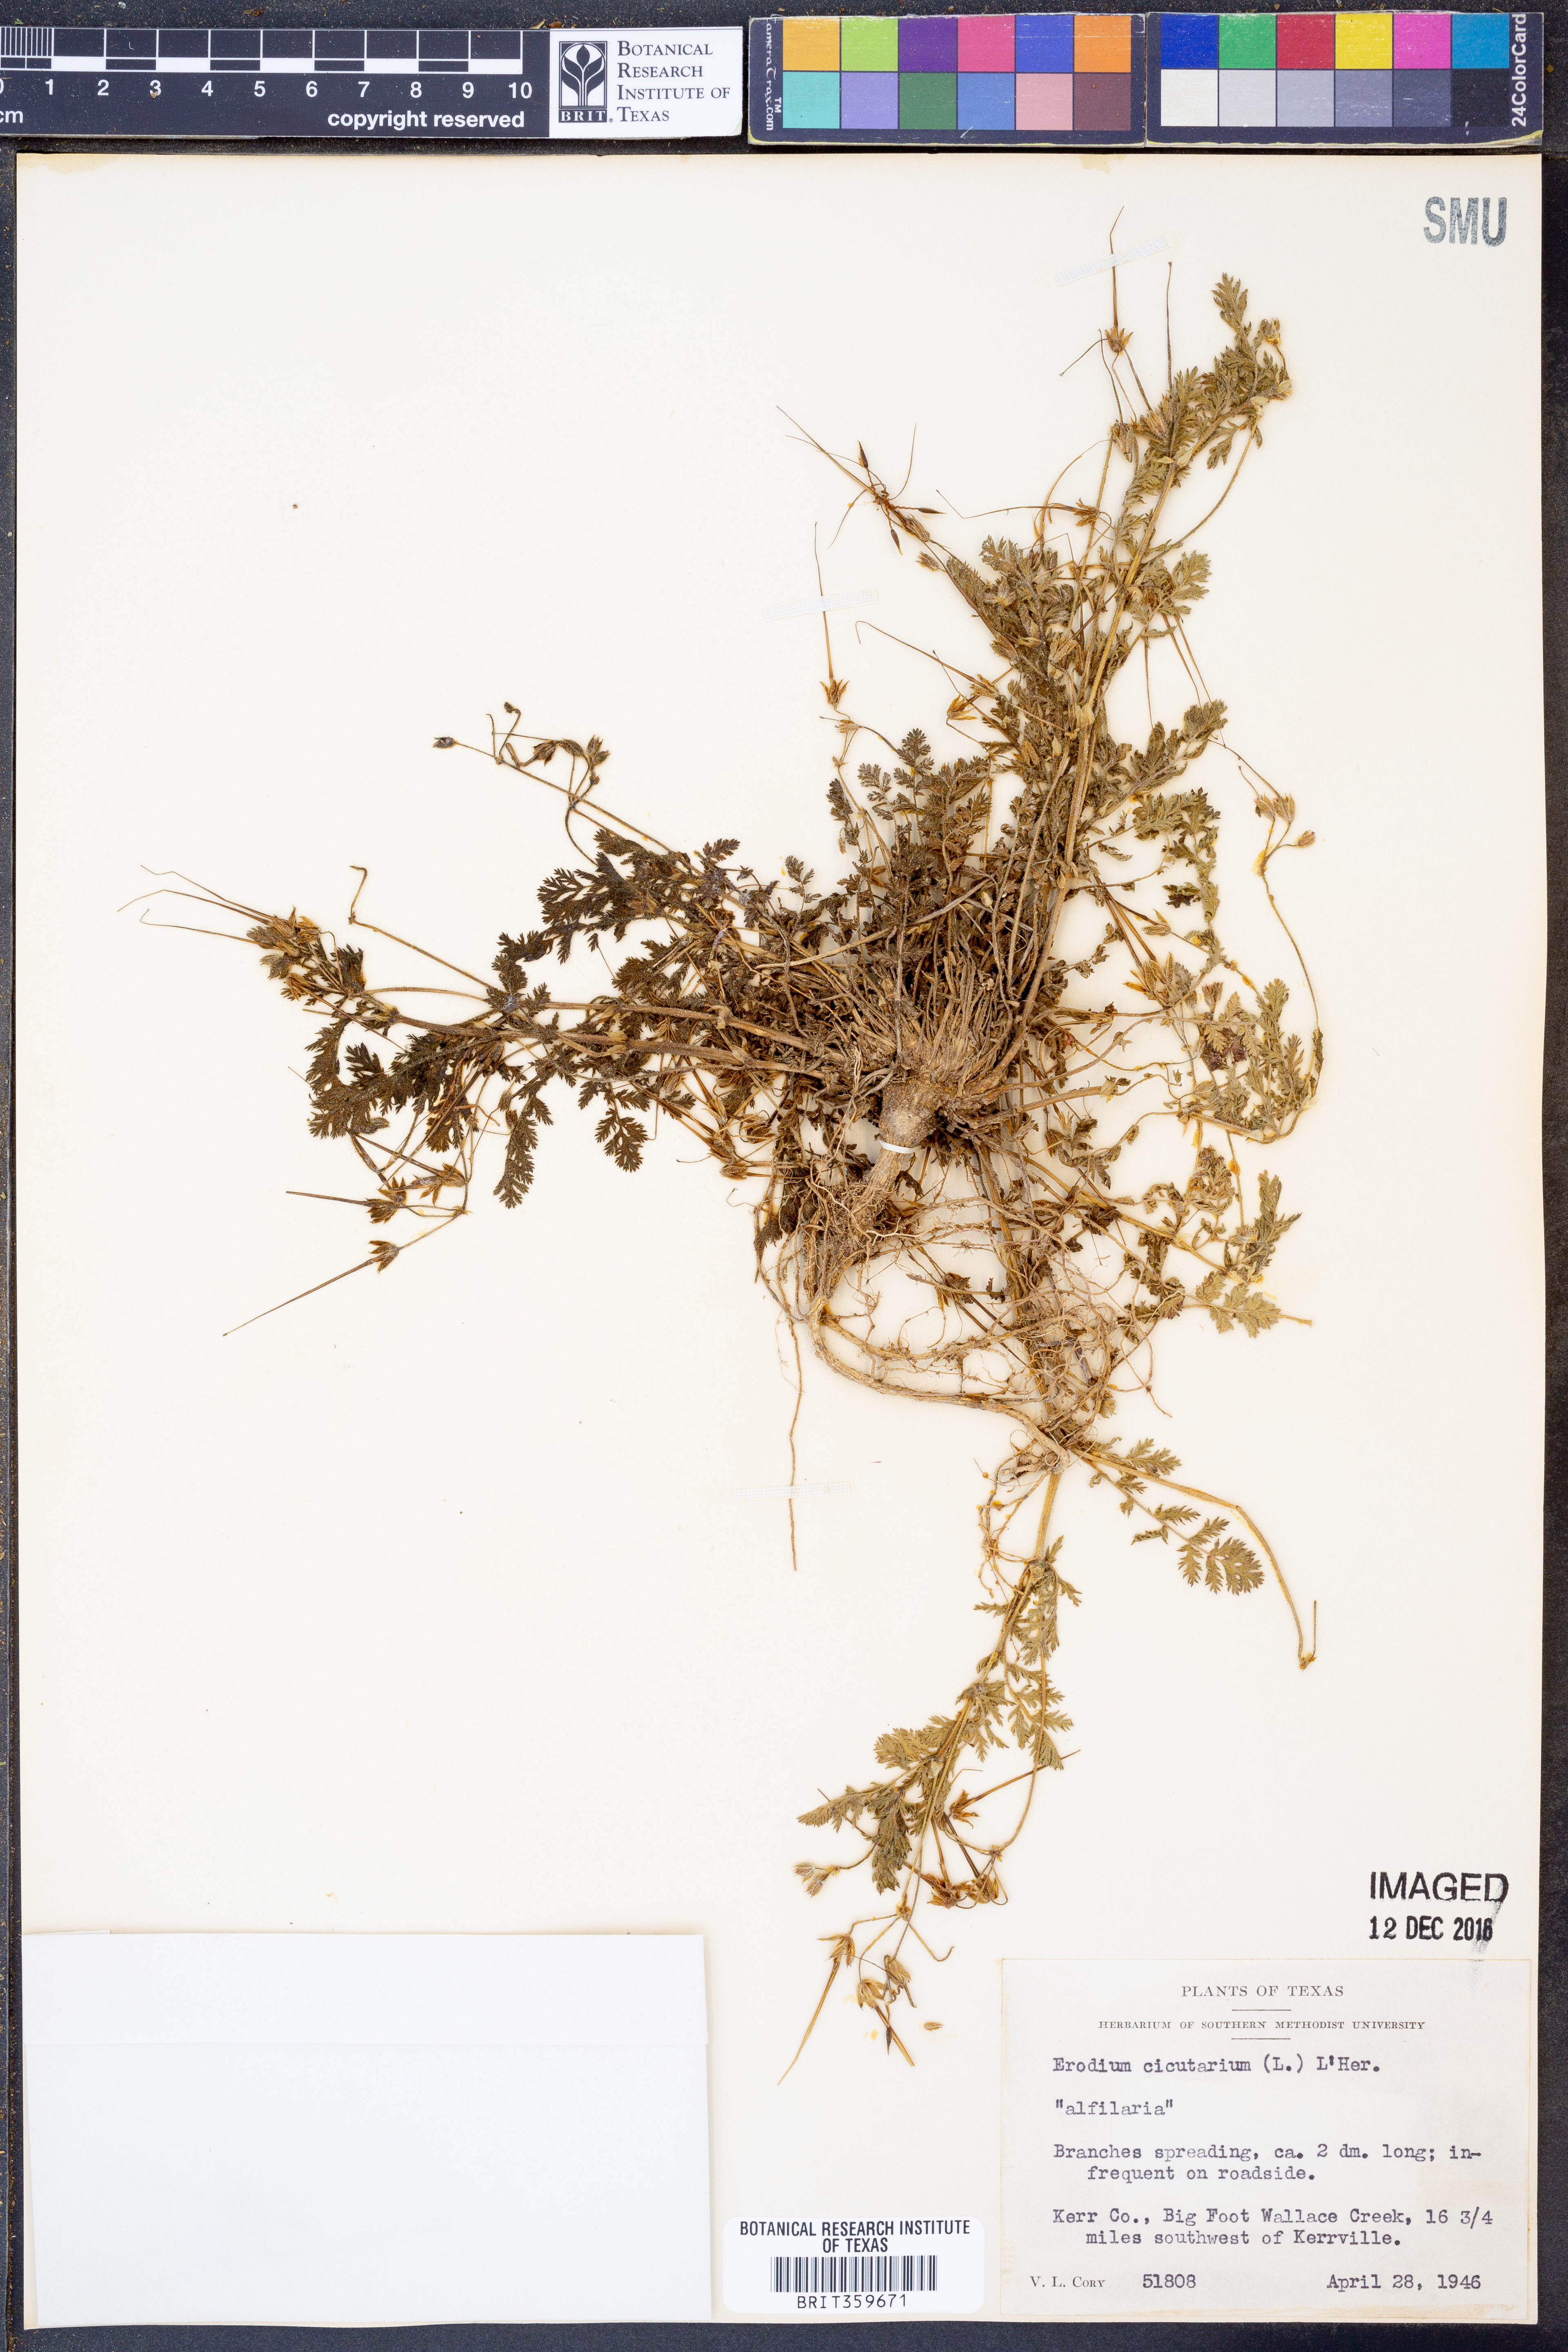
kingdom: Plantae
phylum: Tracheophyta
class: Magnoliopsida
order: Geraniales
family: Geraniaceae
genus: Erodium
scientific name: Erodium cicutarium
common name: Common stork's-bill
